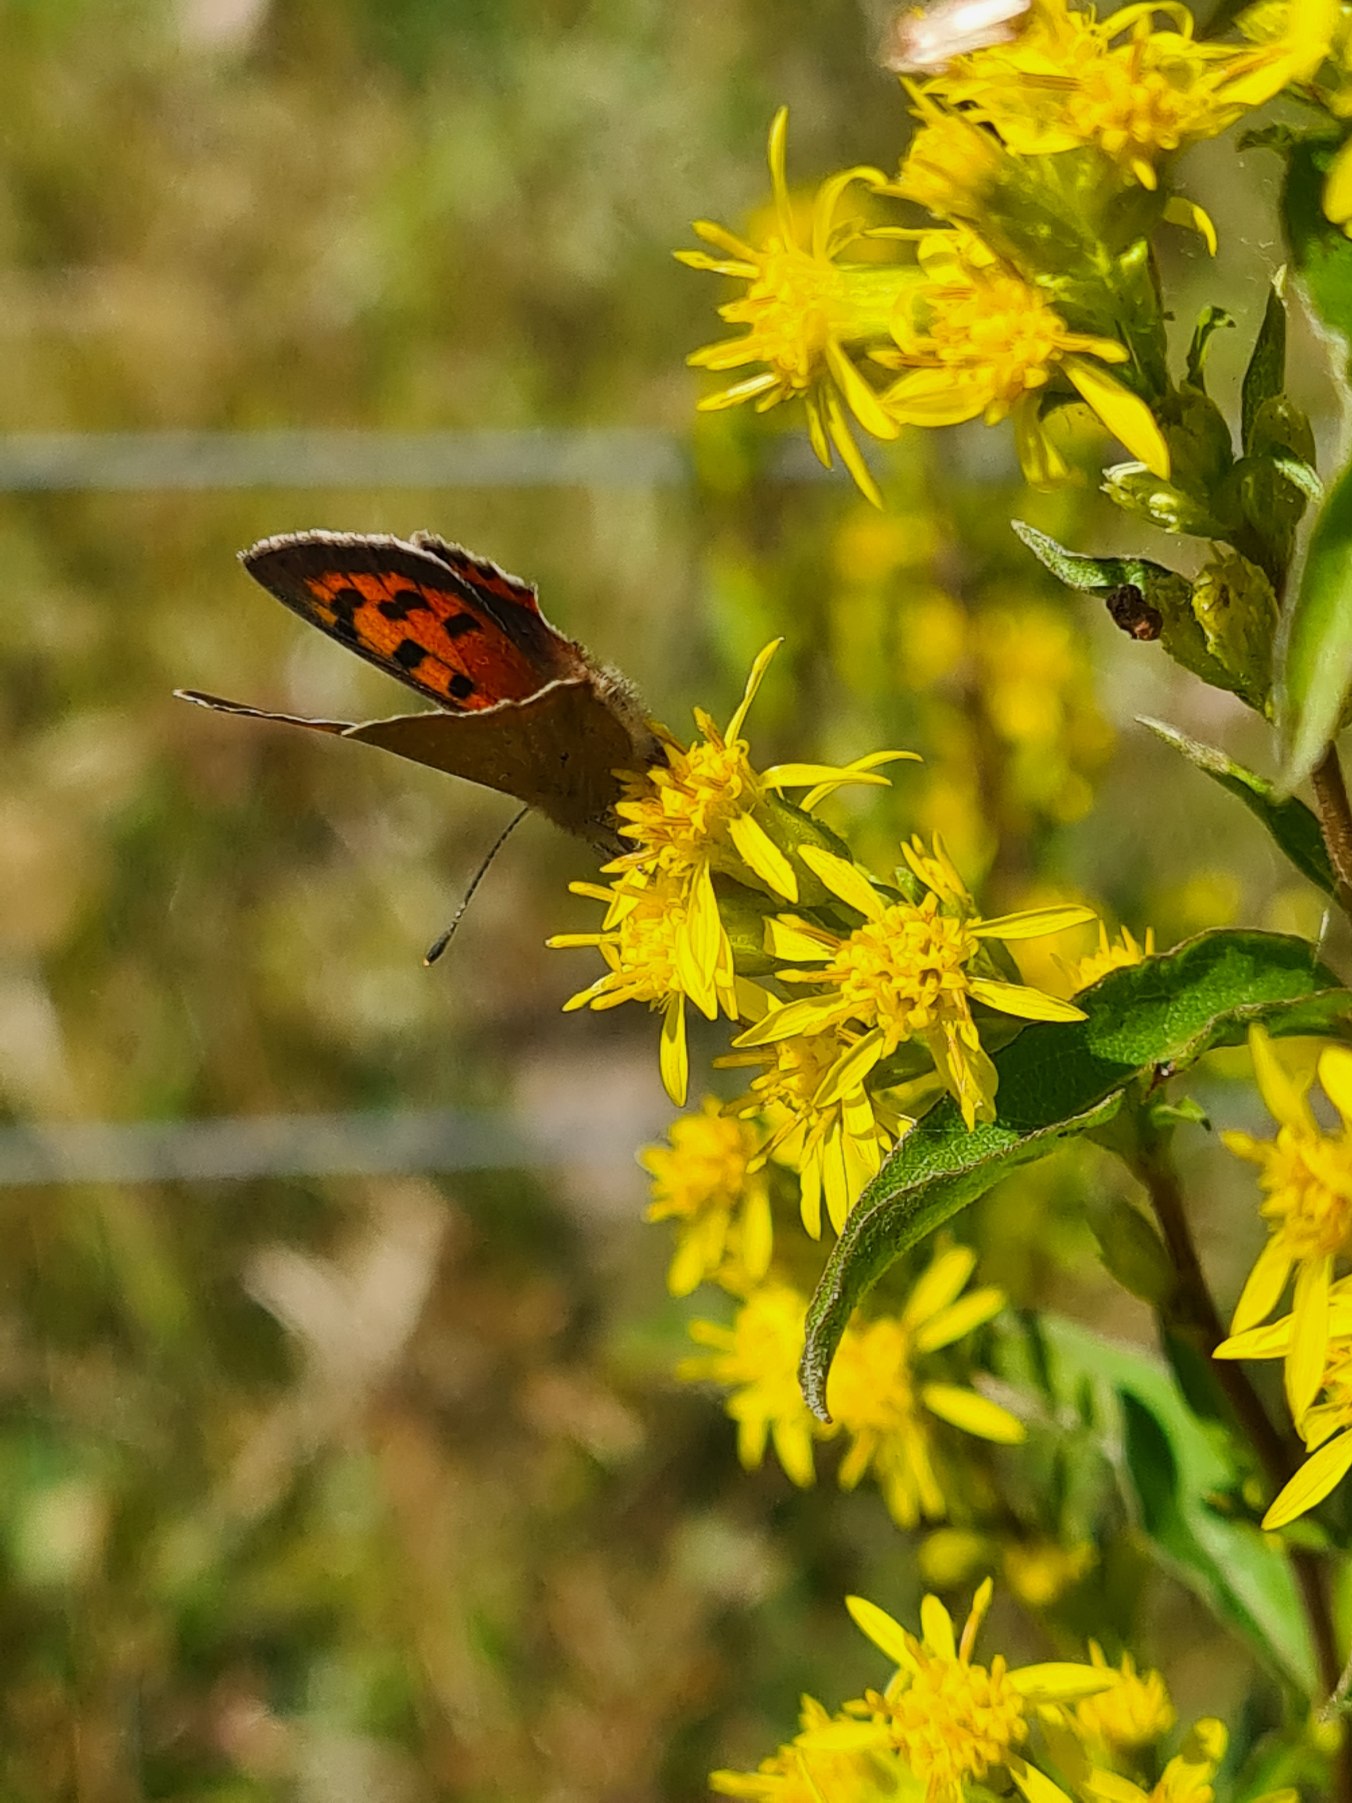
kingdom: Animalia
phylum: Arthropoda
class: Insecta
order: Lepidoptera
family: Lycaenidae
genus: Lycaena
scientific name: Lycaena phlaeas
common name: Lille ildfugl
